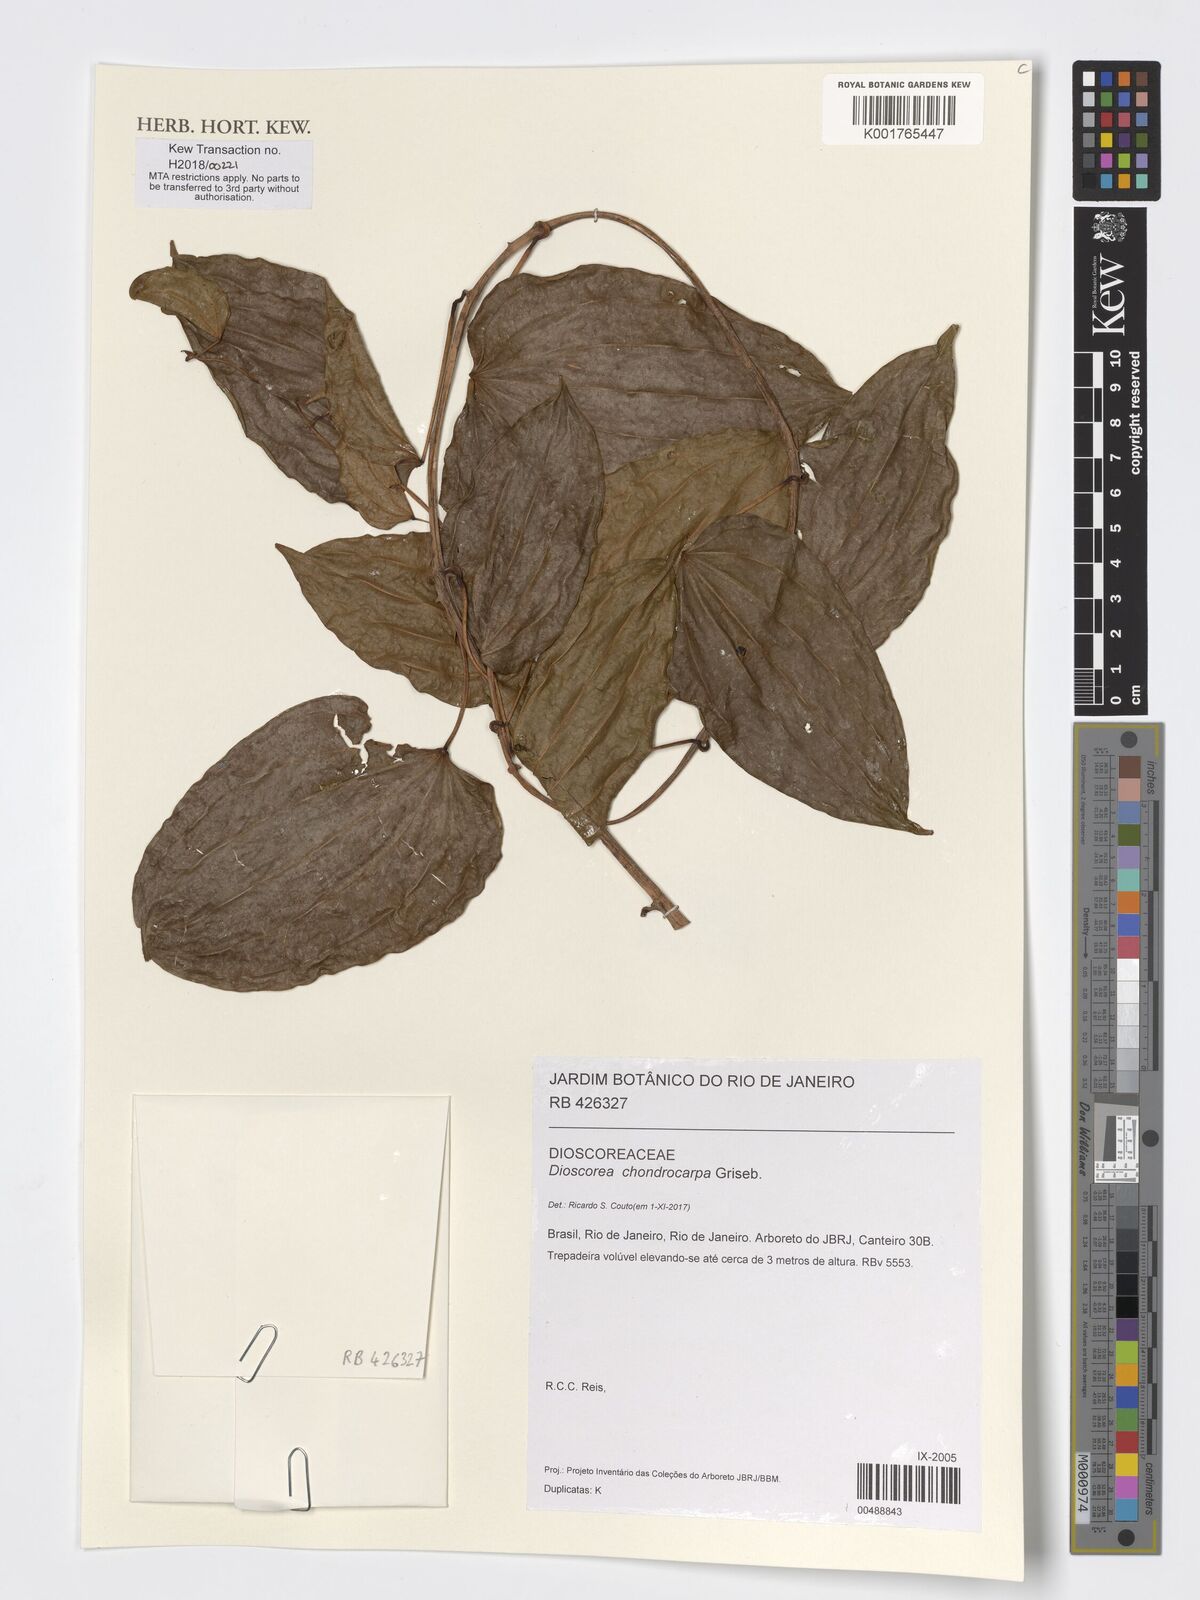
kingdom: Plantae
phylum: Tracheophyta
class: Liliopsida
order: Dioscoreales
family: Dioscoreaceae
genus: Dioscorea
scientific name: Dioscorea chondrocarpa
